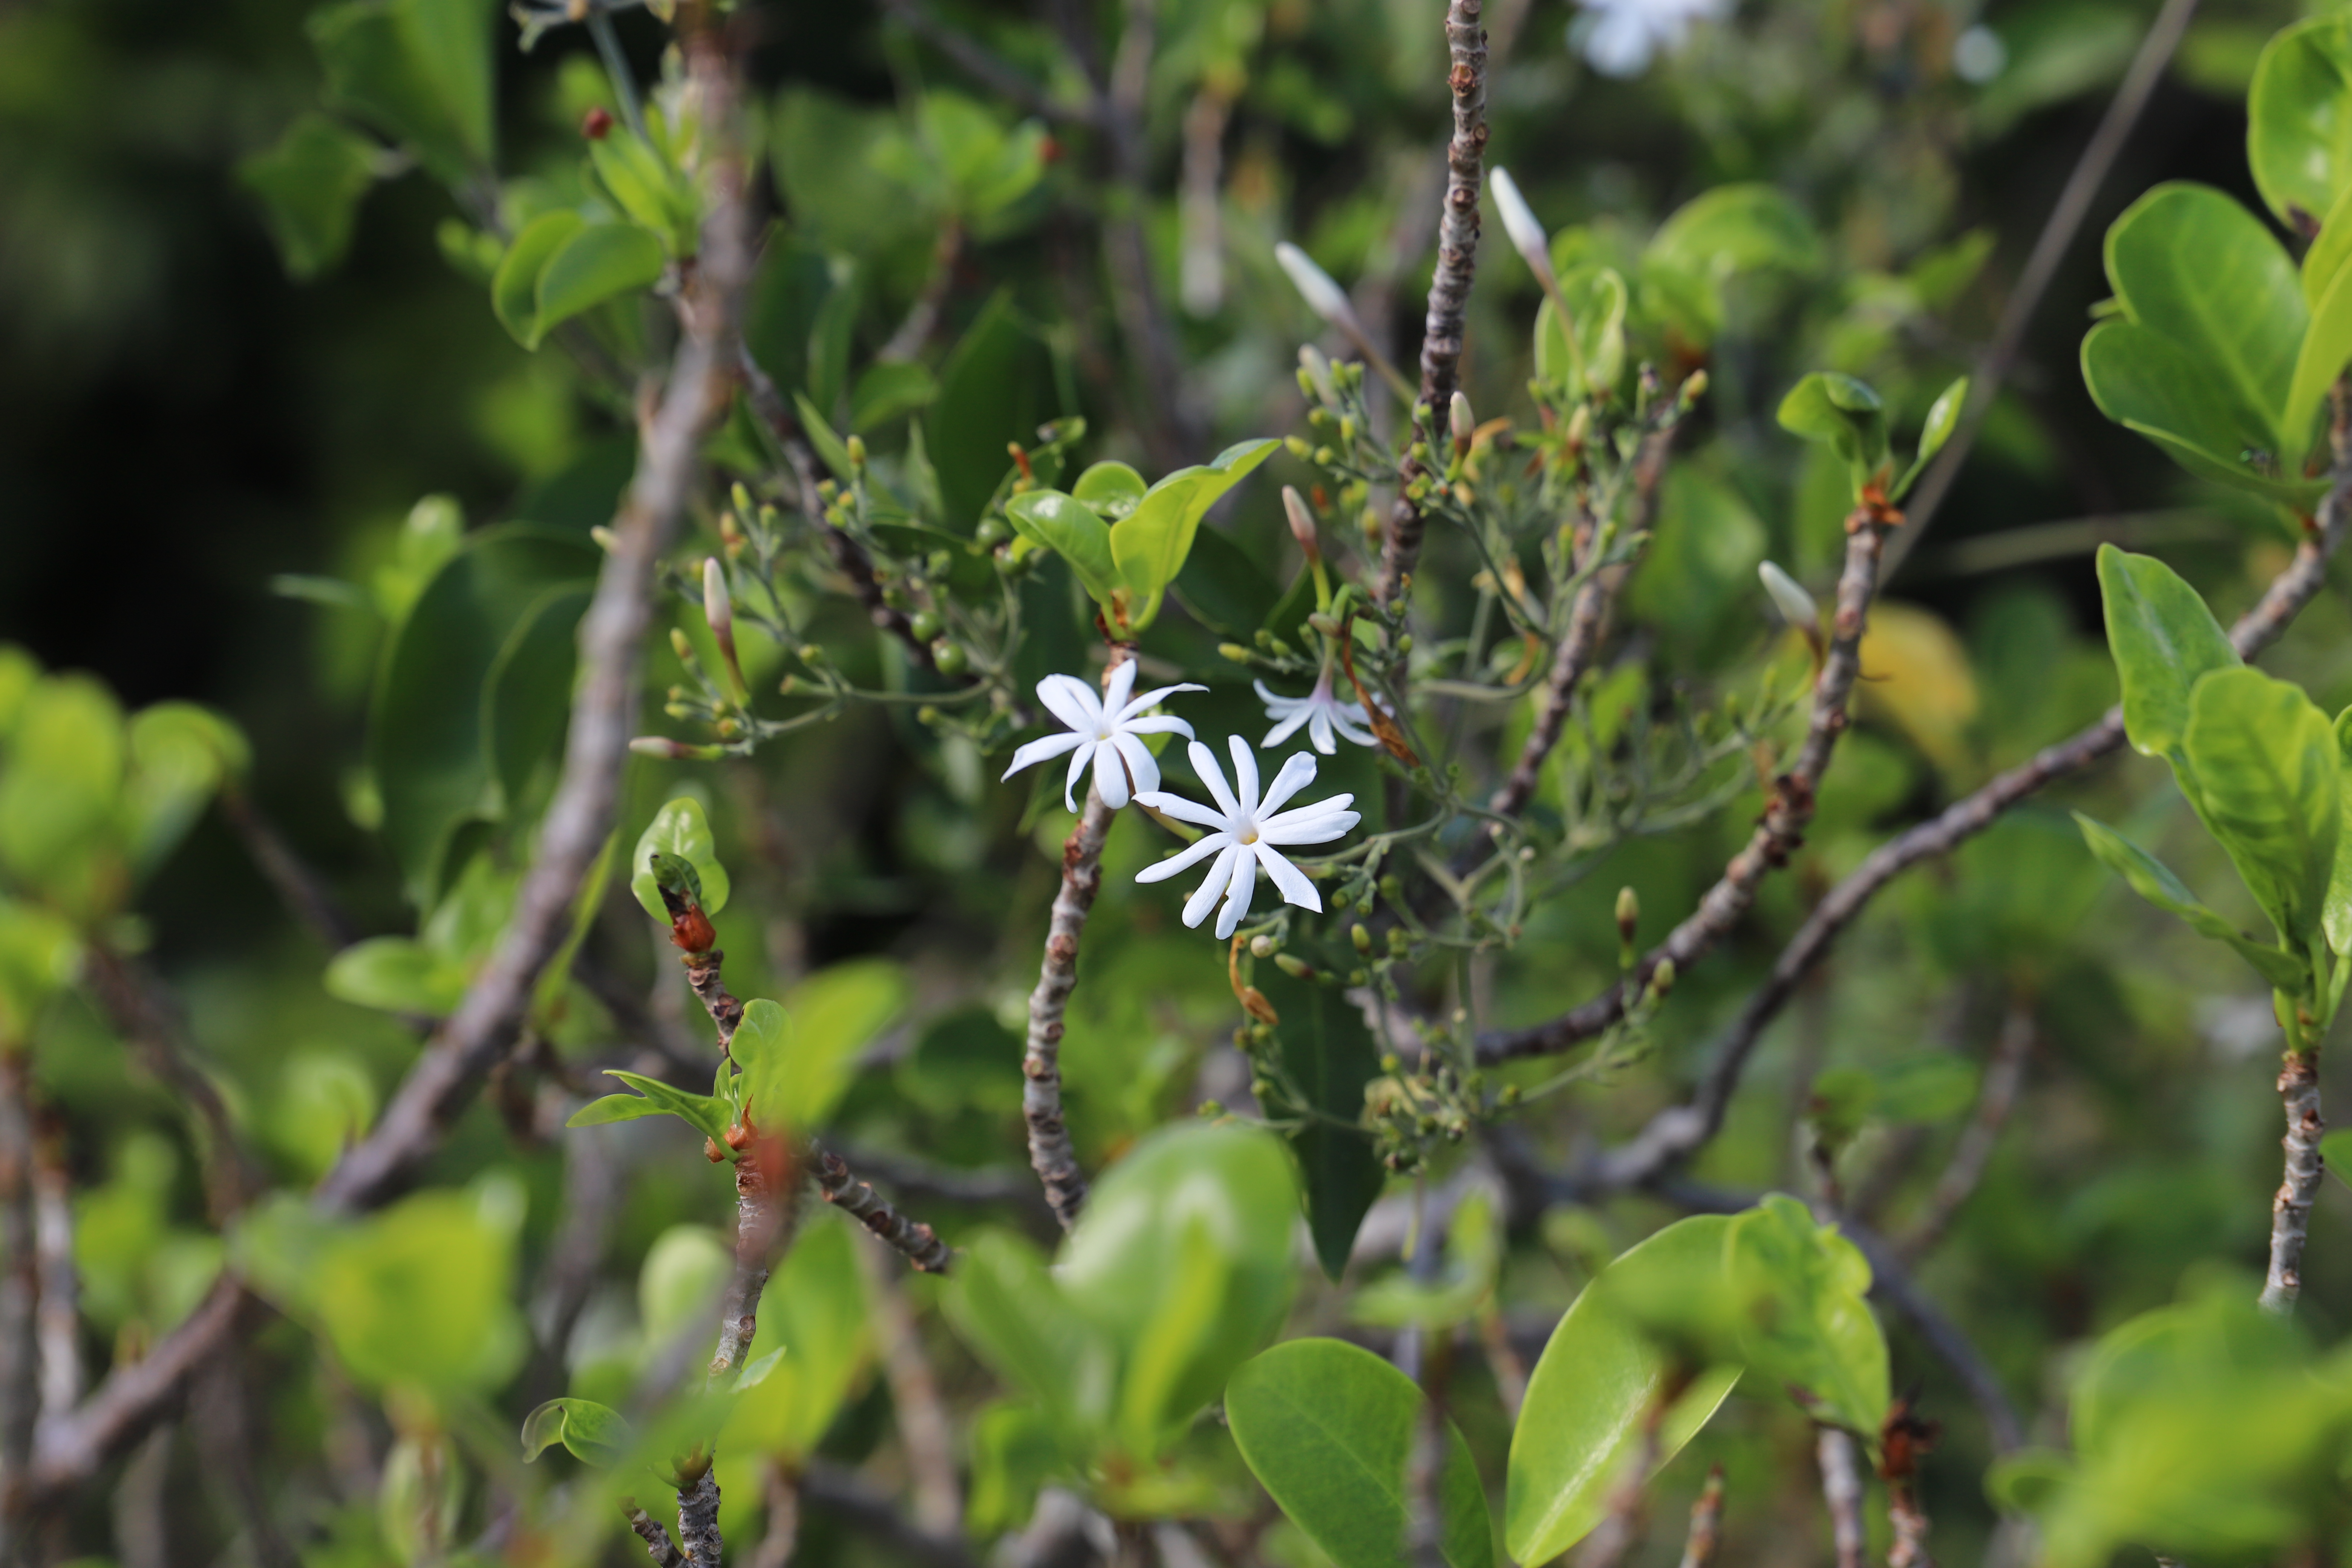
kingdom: Plantae
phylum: Tracheophyta
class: Magnoliopsida
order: Rosales
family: Moraceae
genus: Ficus
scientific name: Ficus reflexa
